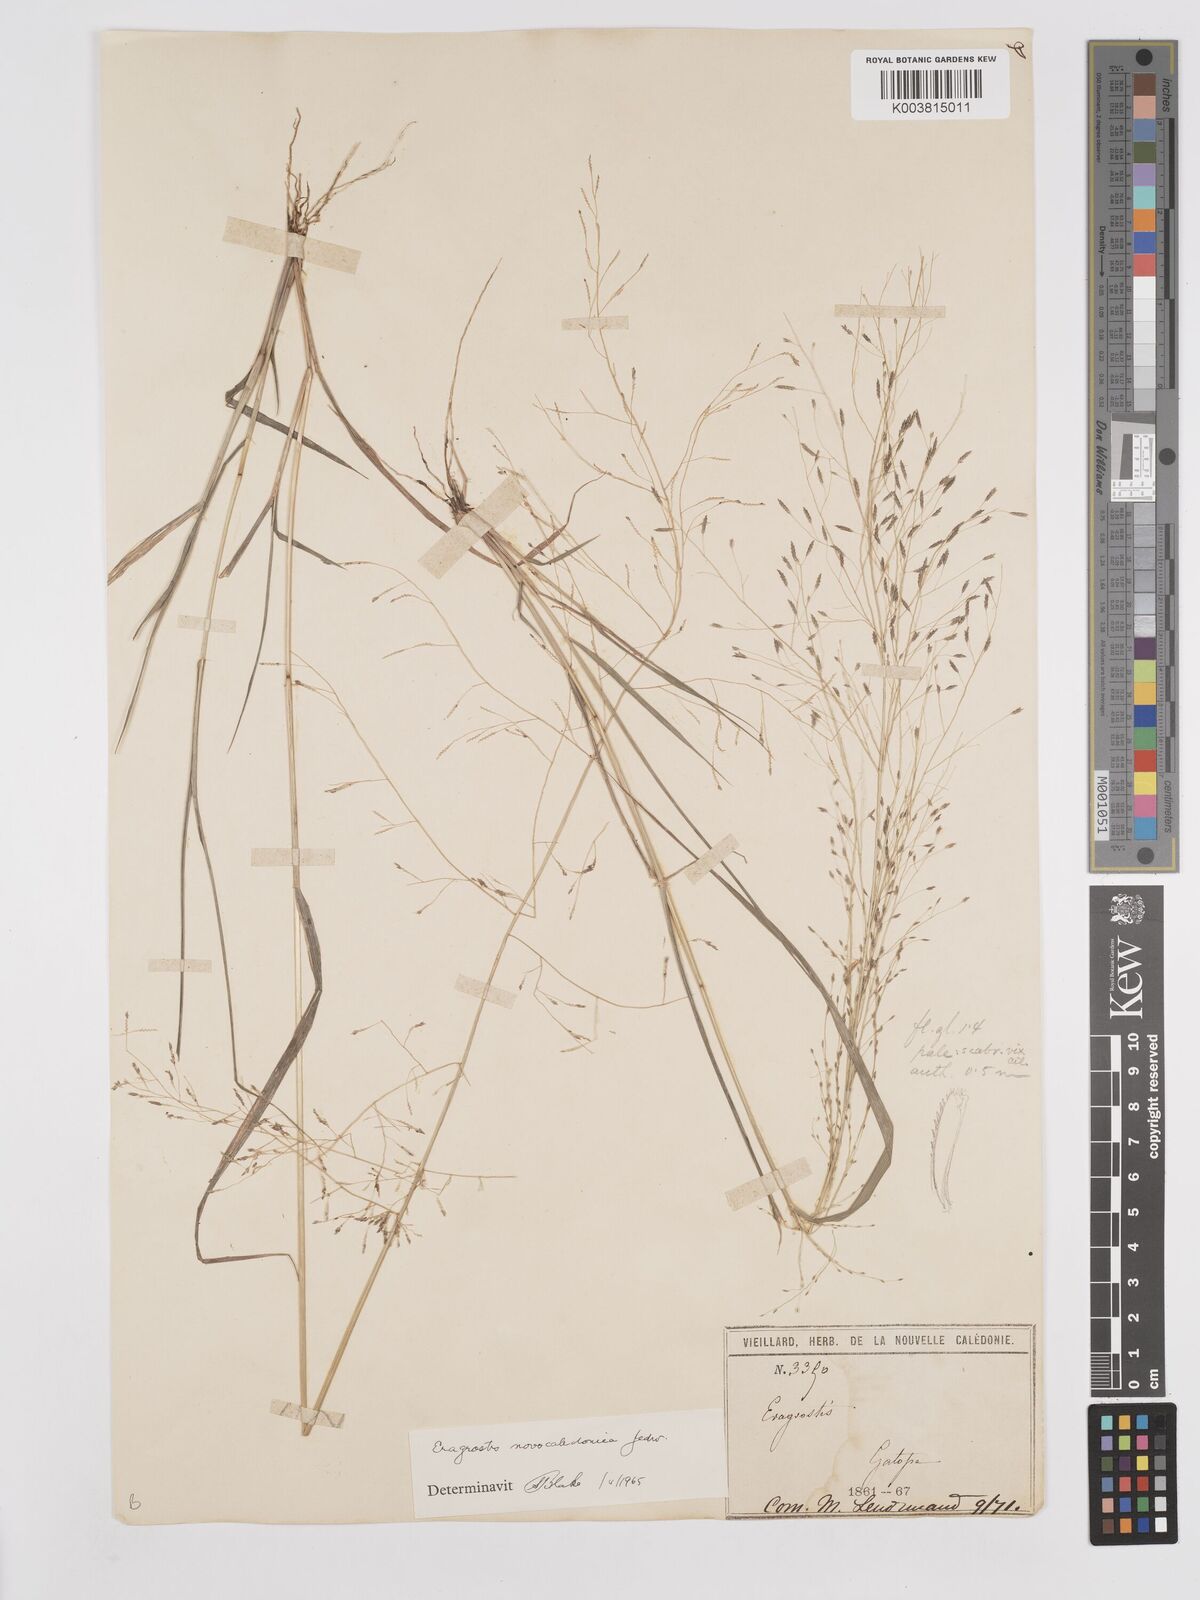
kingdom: Plantae
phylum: Tracheophyta
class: Liliopsida
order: Poales
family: Poaceae
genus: Eragrostis
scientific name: Eragrostis parviflora
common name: Weeping love-grass
